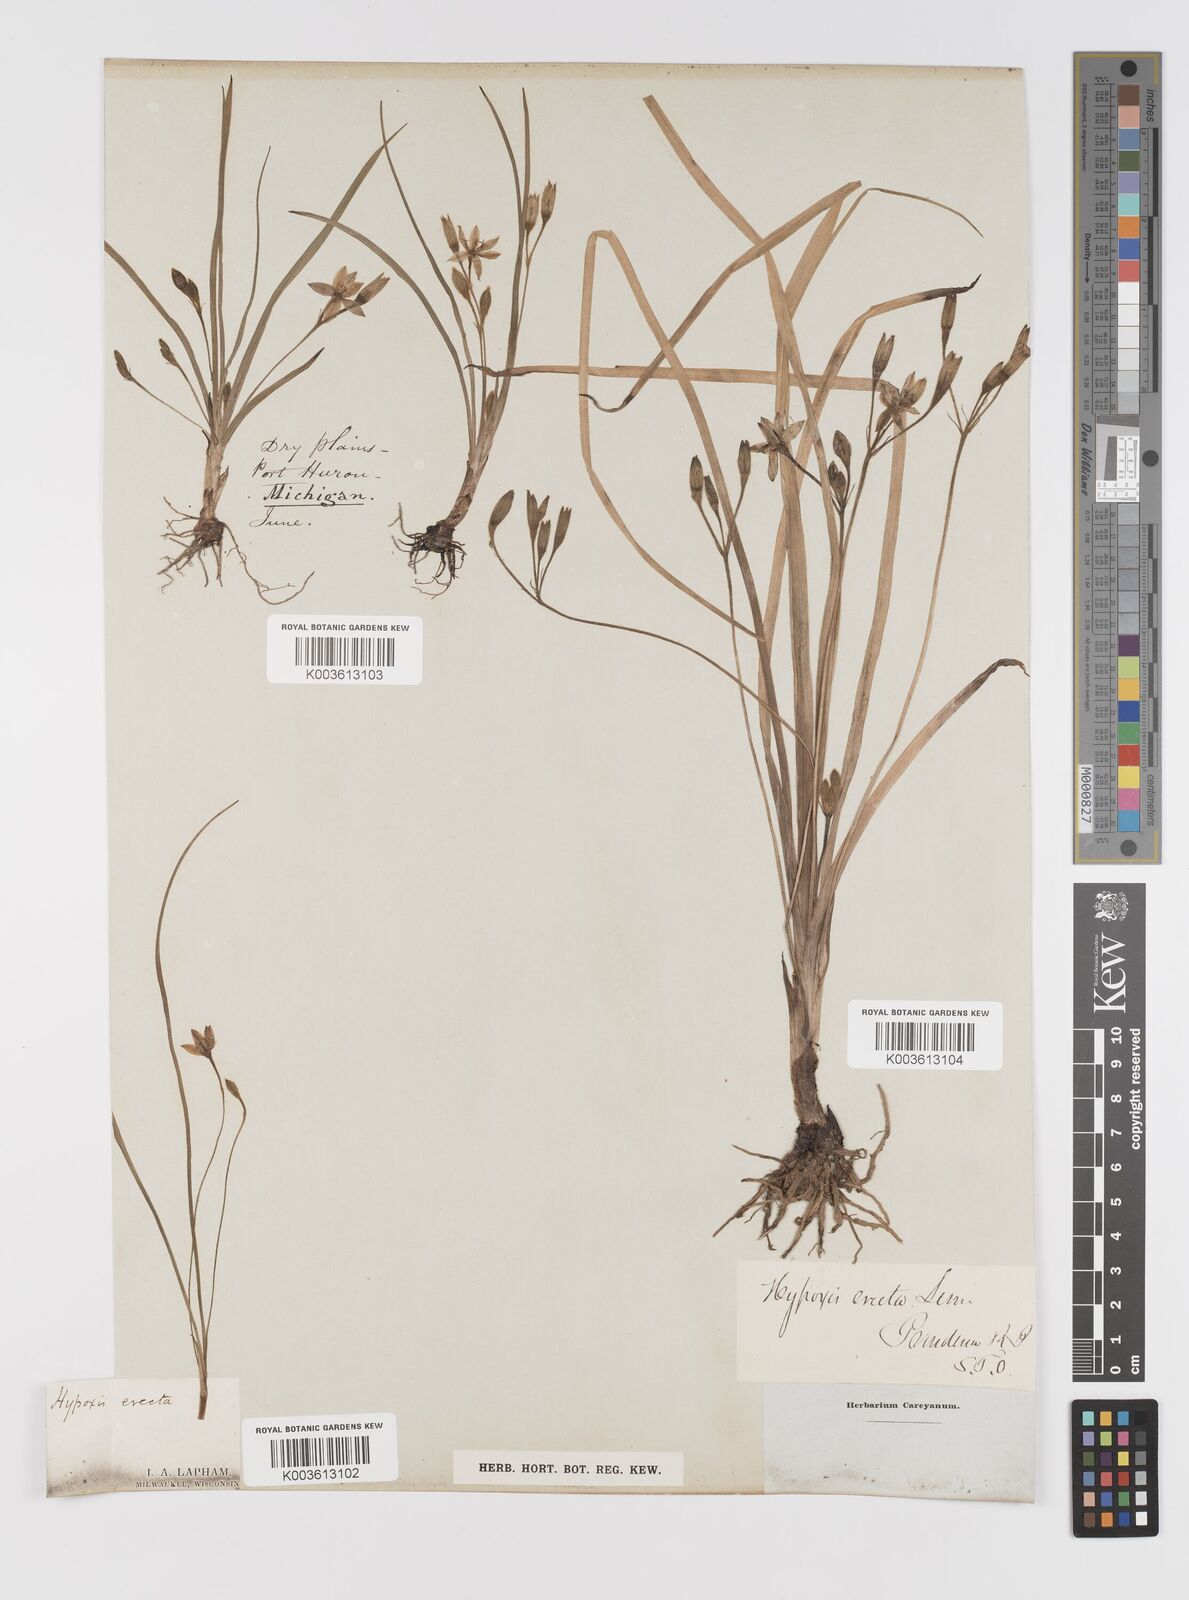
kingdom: Plantae
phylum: Tracheophyta
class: Liliopsida
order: Asparagales
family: Hypoxidaceae
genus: Hypoxis
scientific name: Hypoxis hirsuta
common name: Common goldstar
